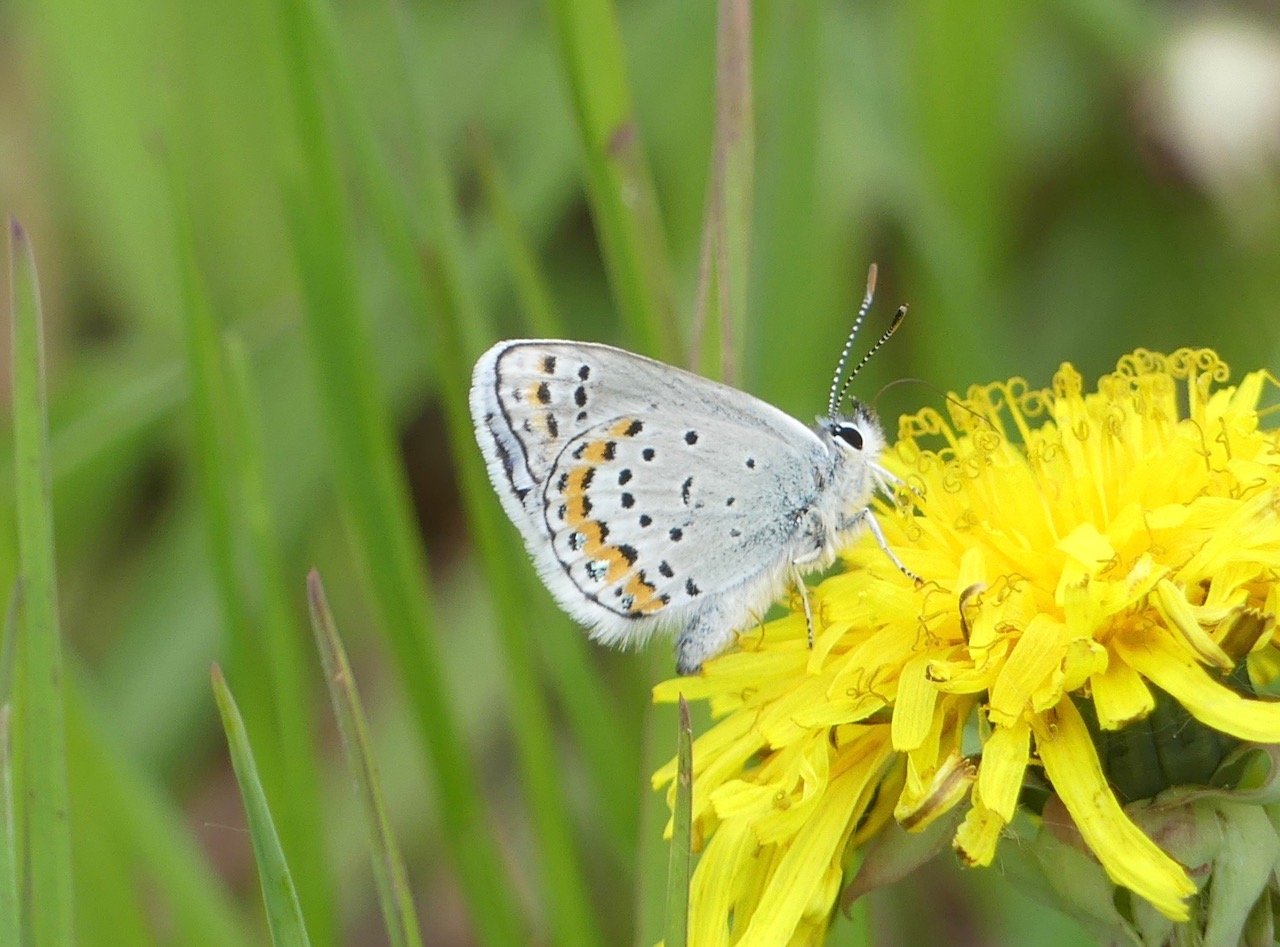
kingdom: Animalia
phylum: Arthropoda
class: Insecta
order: Lepidoptera
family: Lycaenidae
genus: Lycaeides
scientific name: Lycaeides melissa
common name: Melissa Blue
